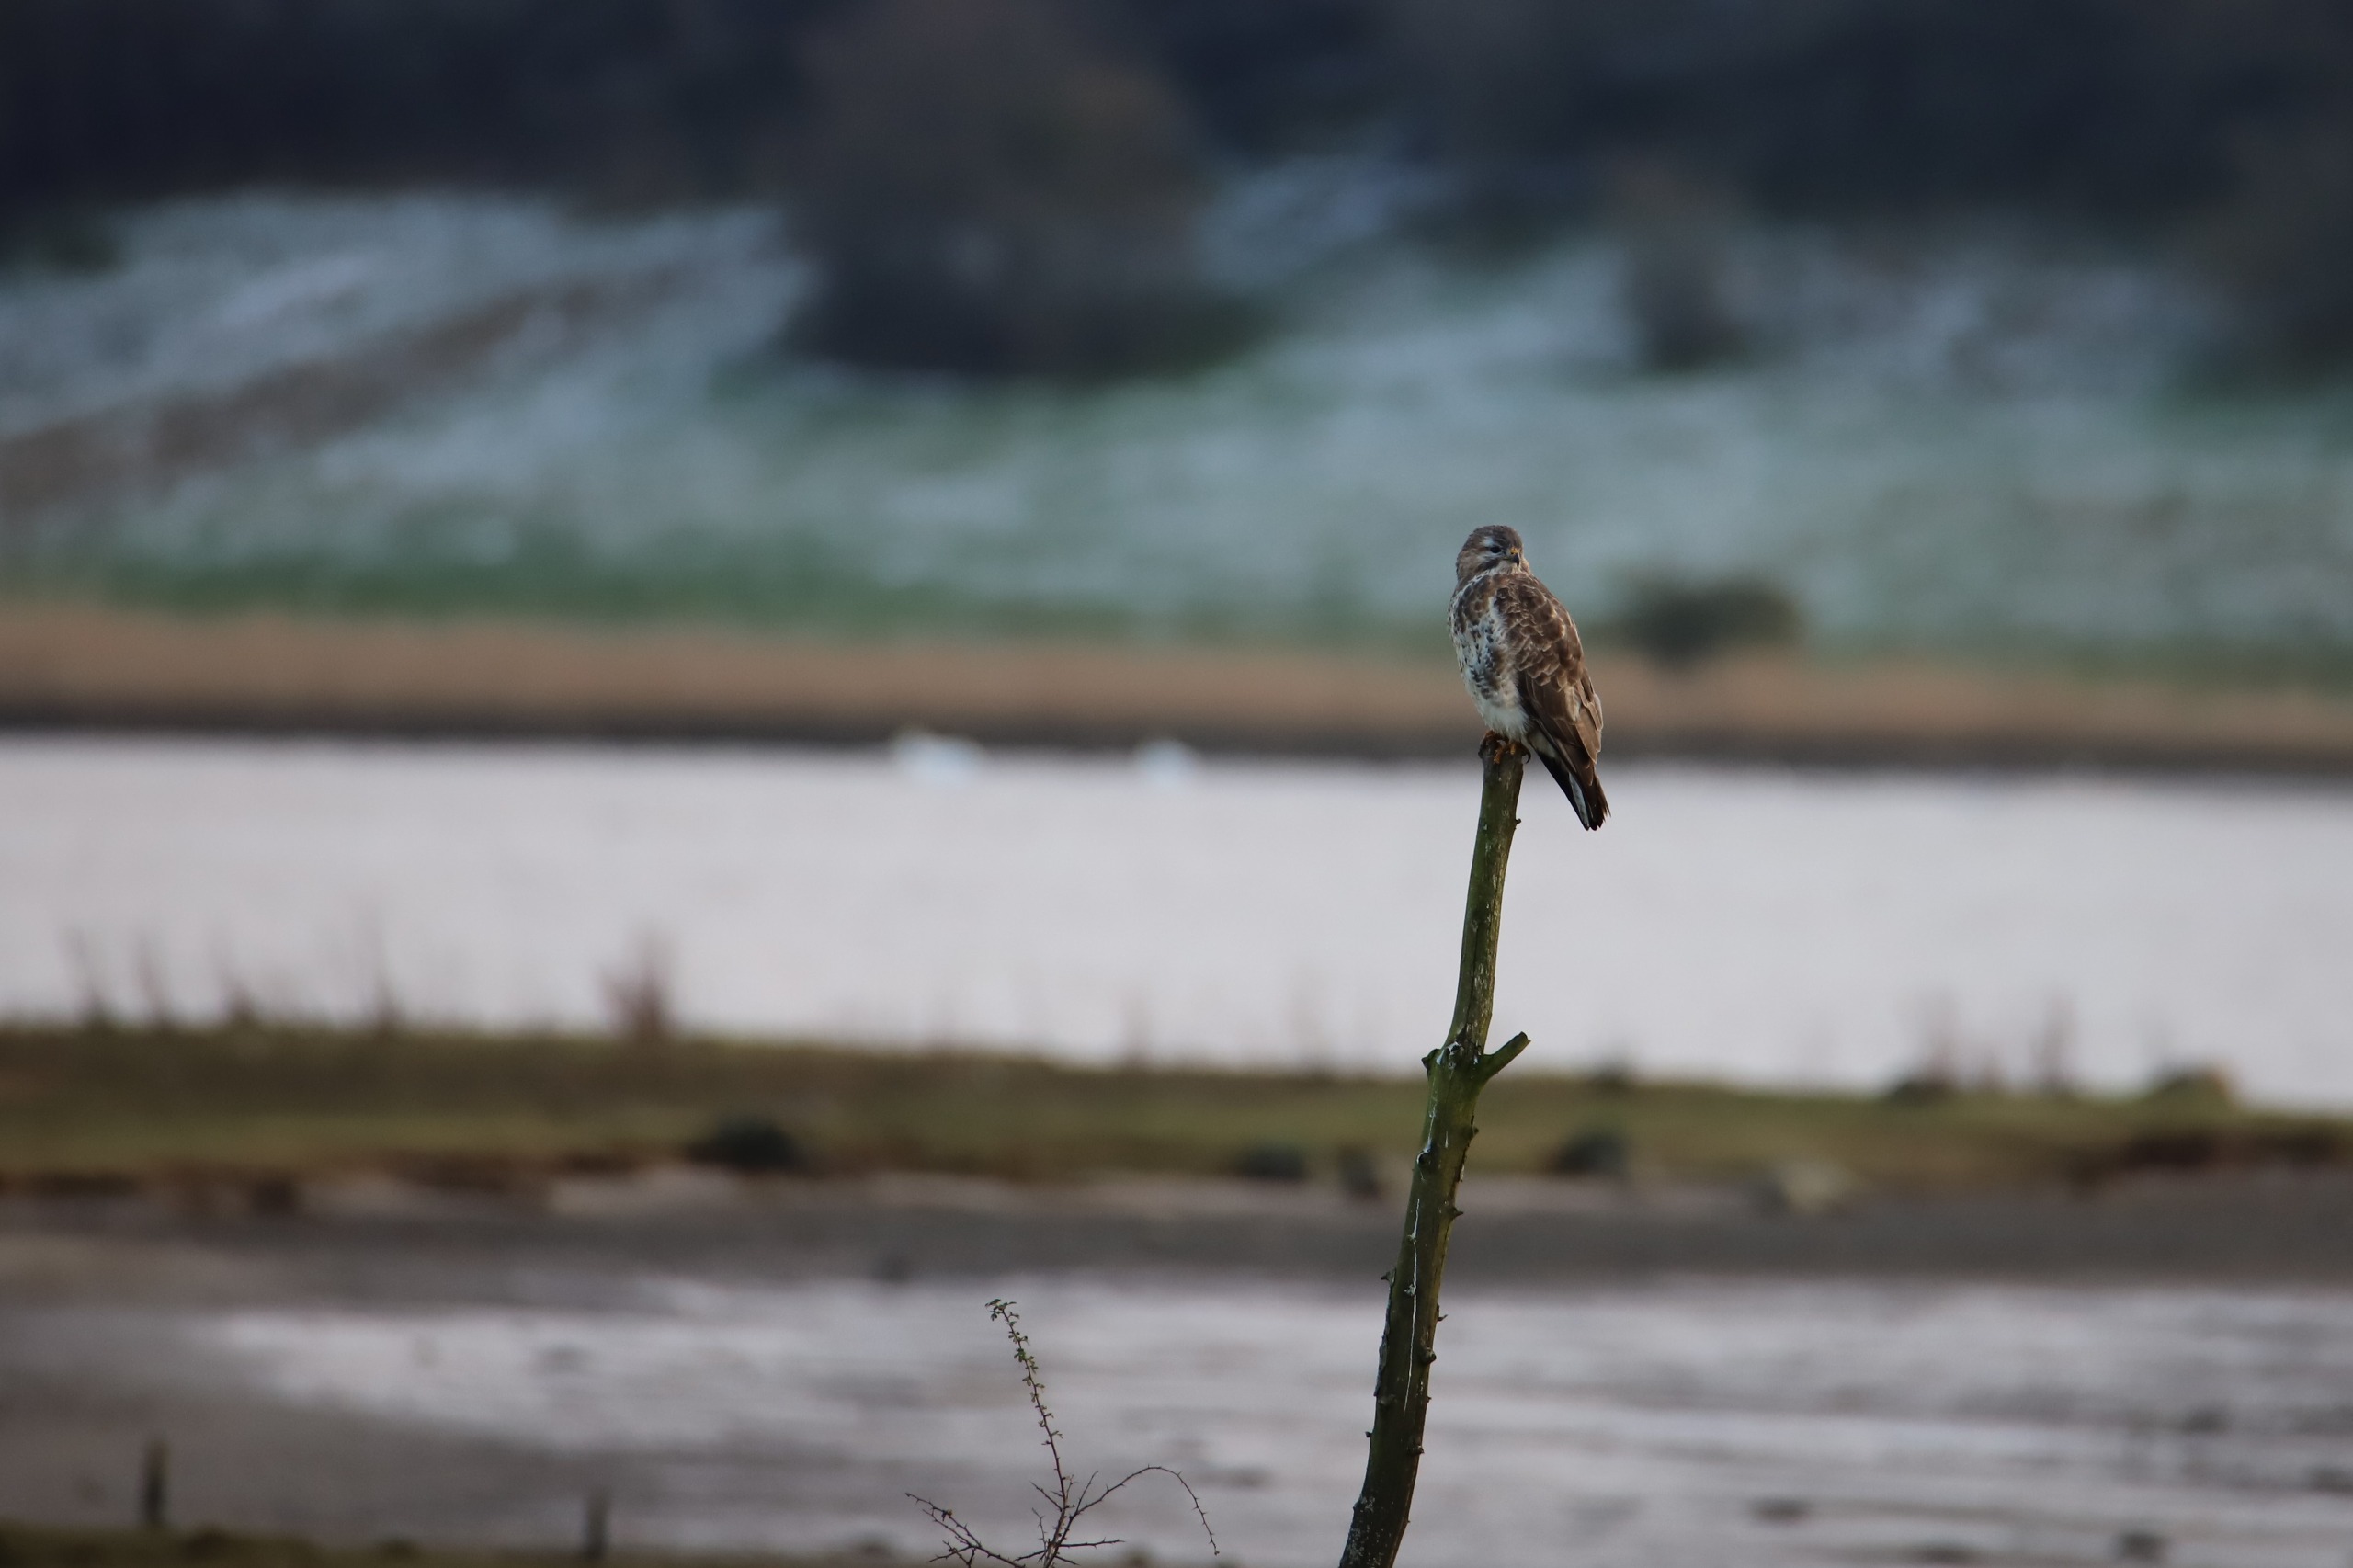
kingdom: Animalia
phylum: Chordata
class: Aves
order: Accipitriformes
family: Accipitridae
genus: Buteo
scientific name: Buteo buteo
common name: Musvåge
